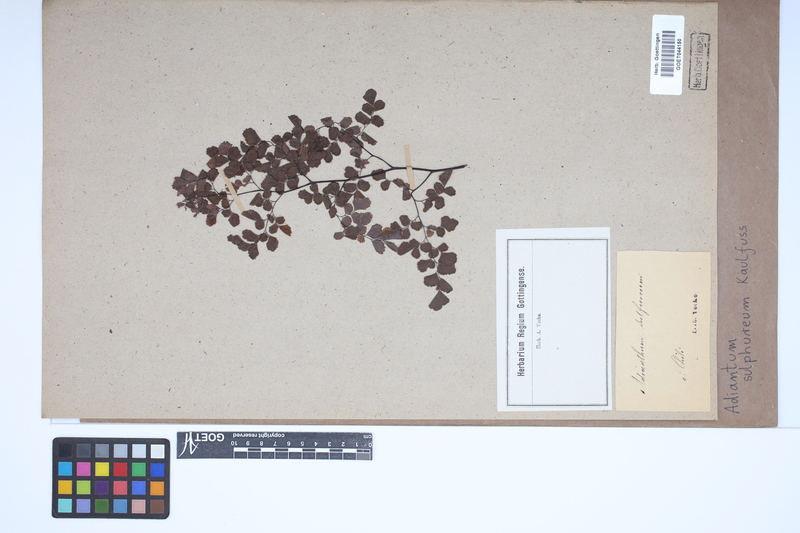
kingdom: Plantae
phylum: Tracheophyta
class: Polypodiopsida
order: Polypodiales
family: Pteridaceae
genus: Adiantum
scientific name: Adiantum sulphureum
